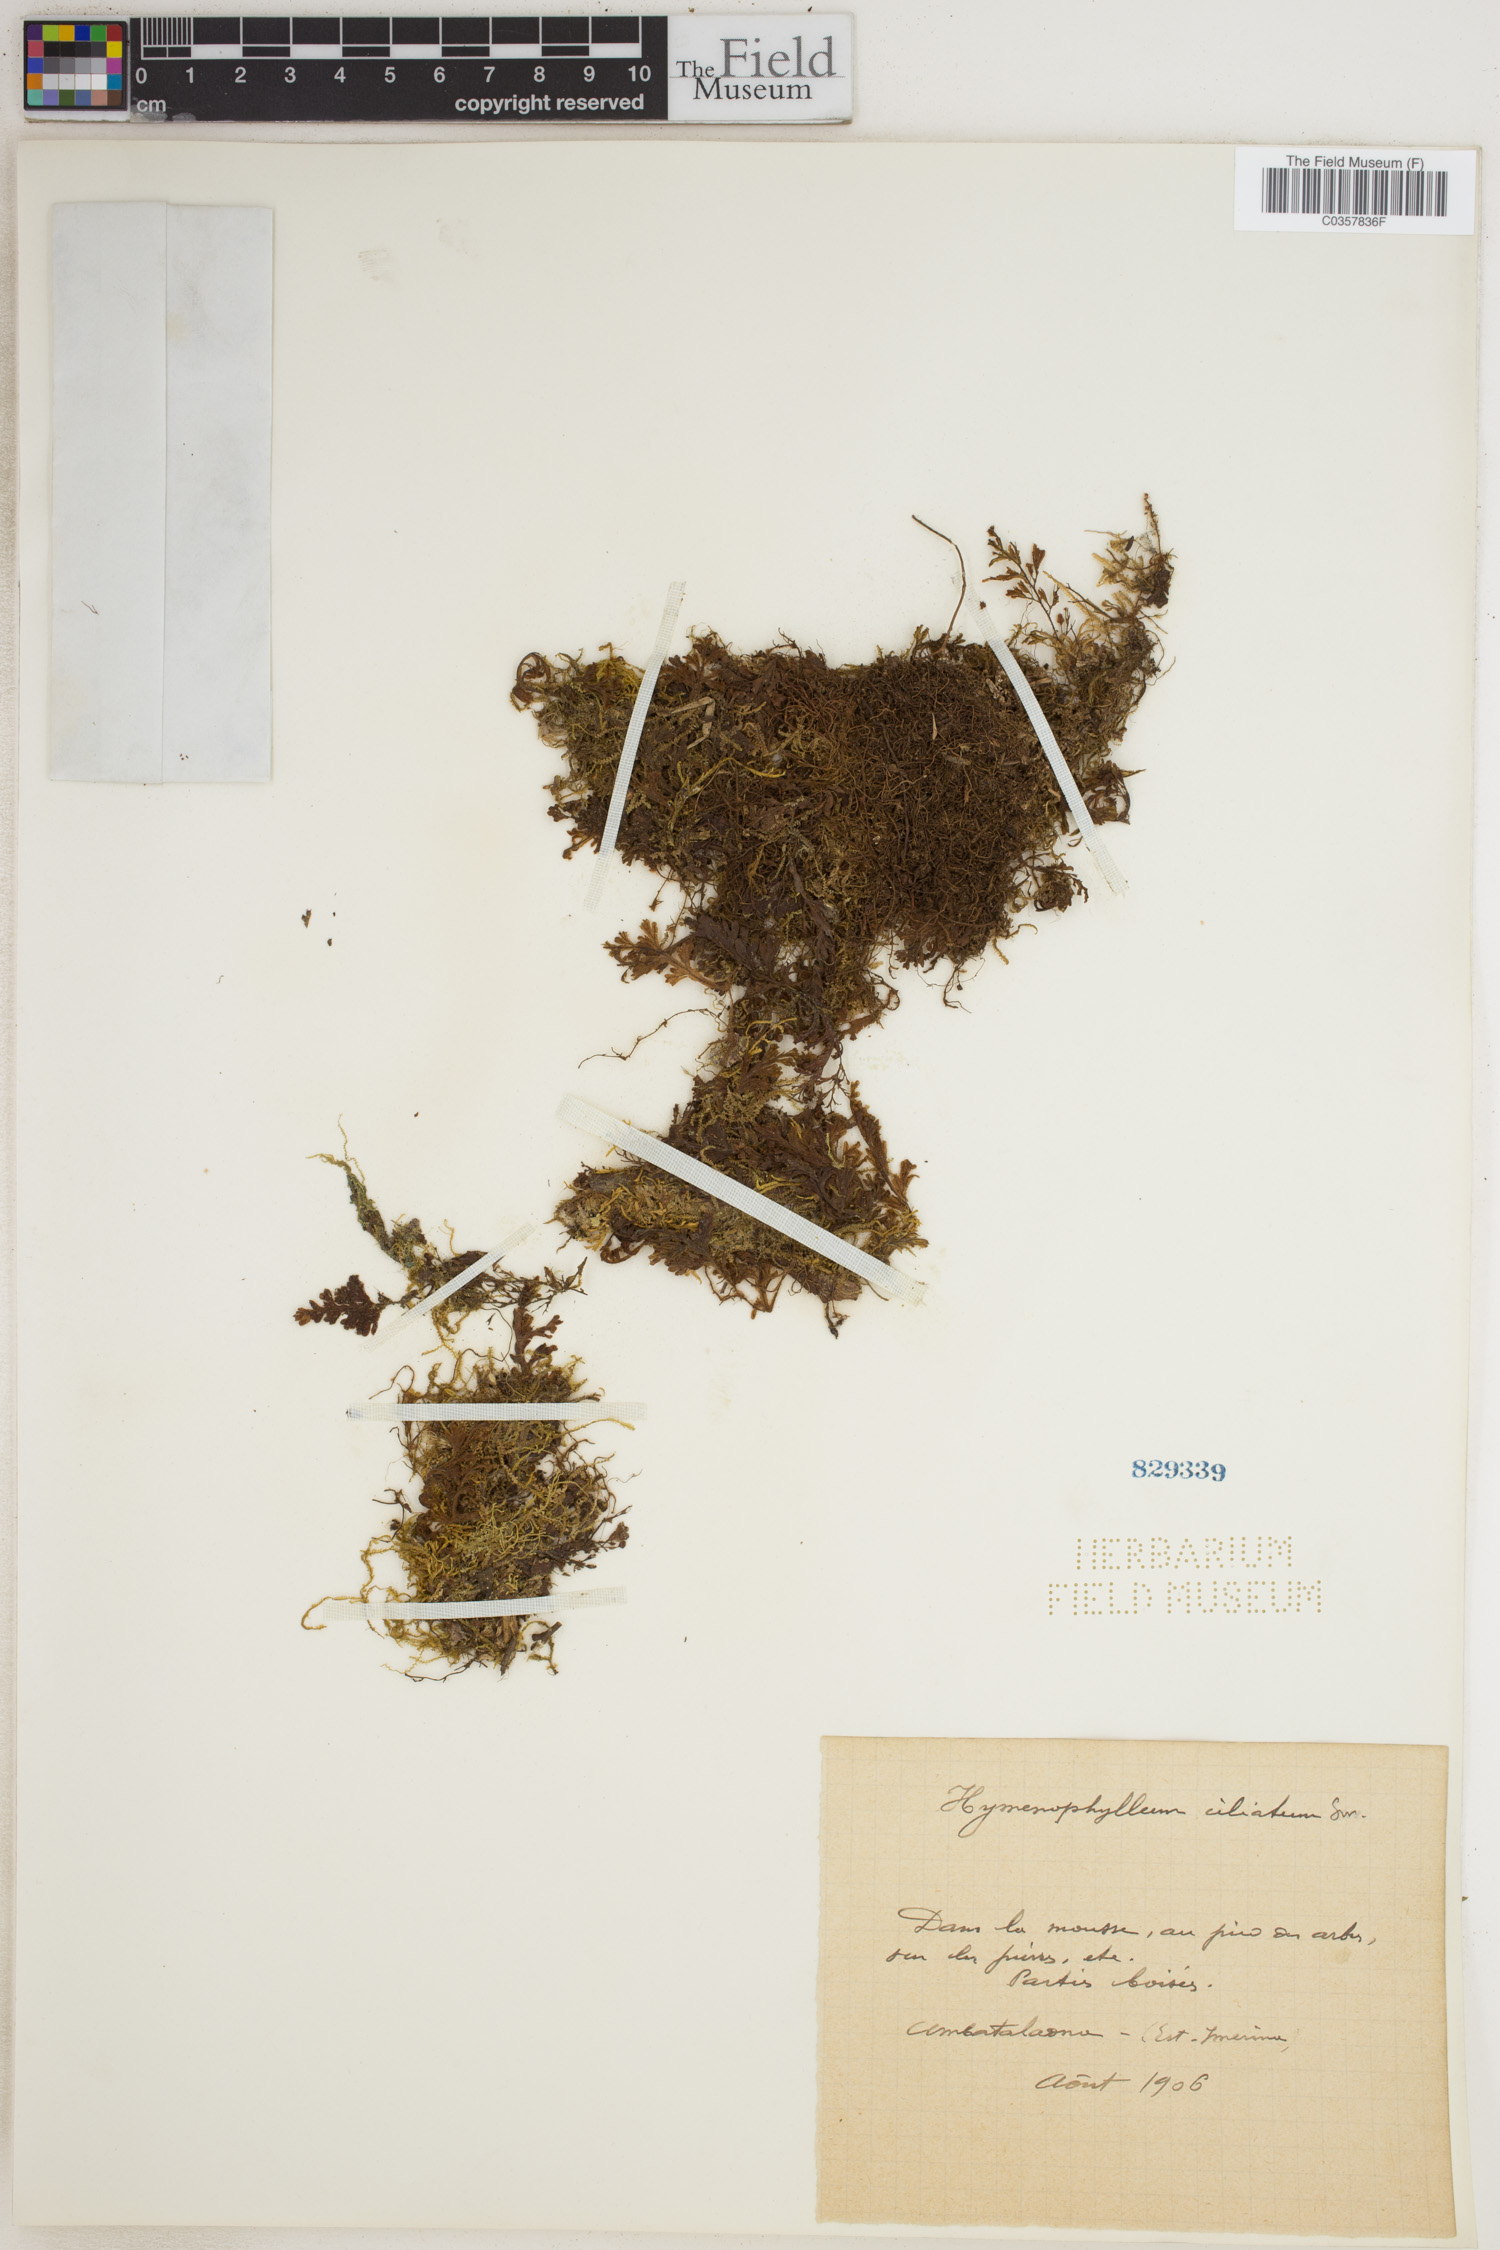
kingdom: Plantae
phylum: Tracheophyta
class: Polypodiopsida
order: Hymenophyllales
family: Hymenophyllaceae
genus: Hymenophyllum
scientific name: Hymenophyllum hirsutum
